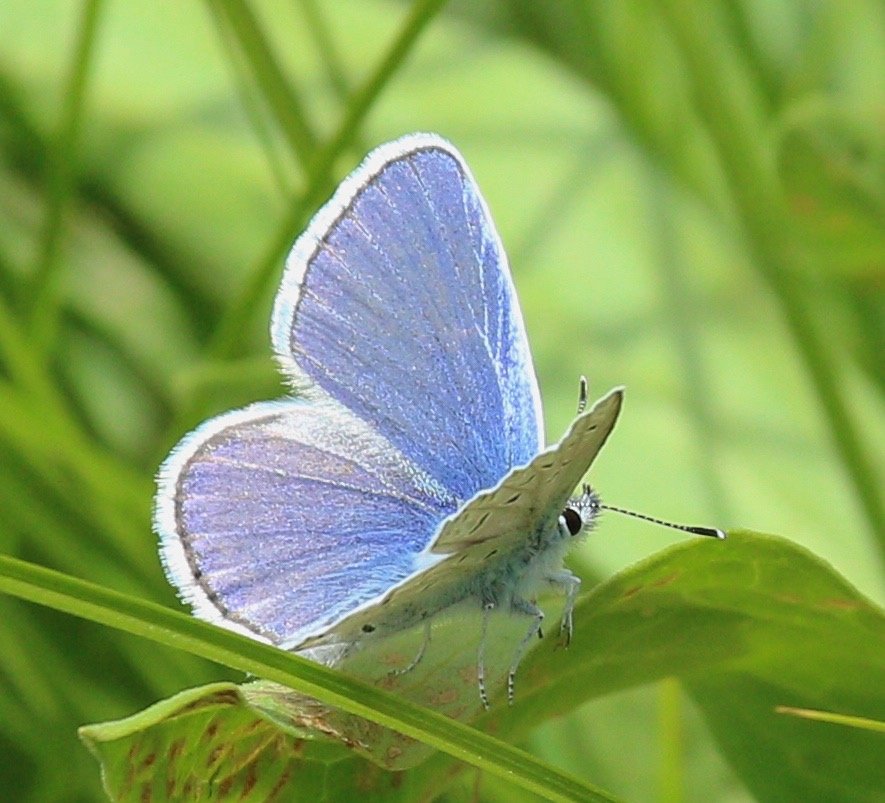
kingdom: Animalia
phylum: Arthropoda
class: Insecta
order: Lepidoptera
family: Lycaenidae
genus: Lycaena
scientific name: Lycaena heteronea
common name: Blue Copper
